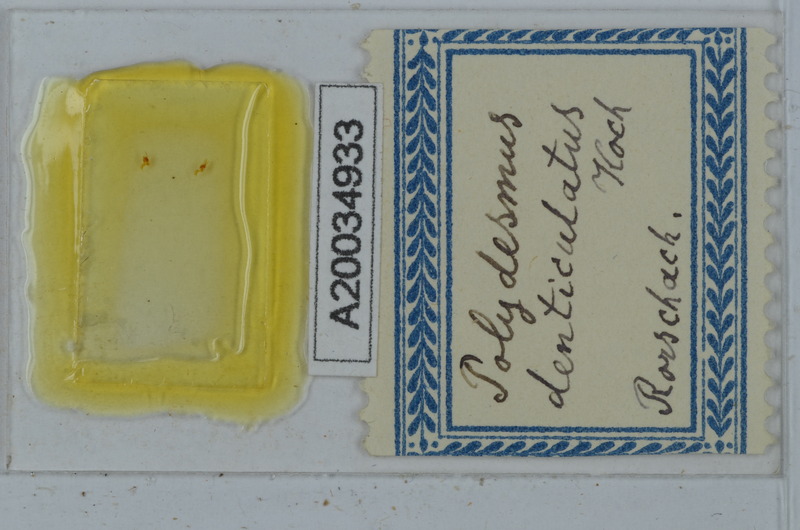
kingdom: Animalia
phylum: Arthropoda
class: Diplopoda
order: Polydesmida
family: Polydesmidae
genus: Polydesmus
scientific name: Polydesmus denticulatus
